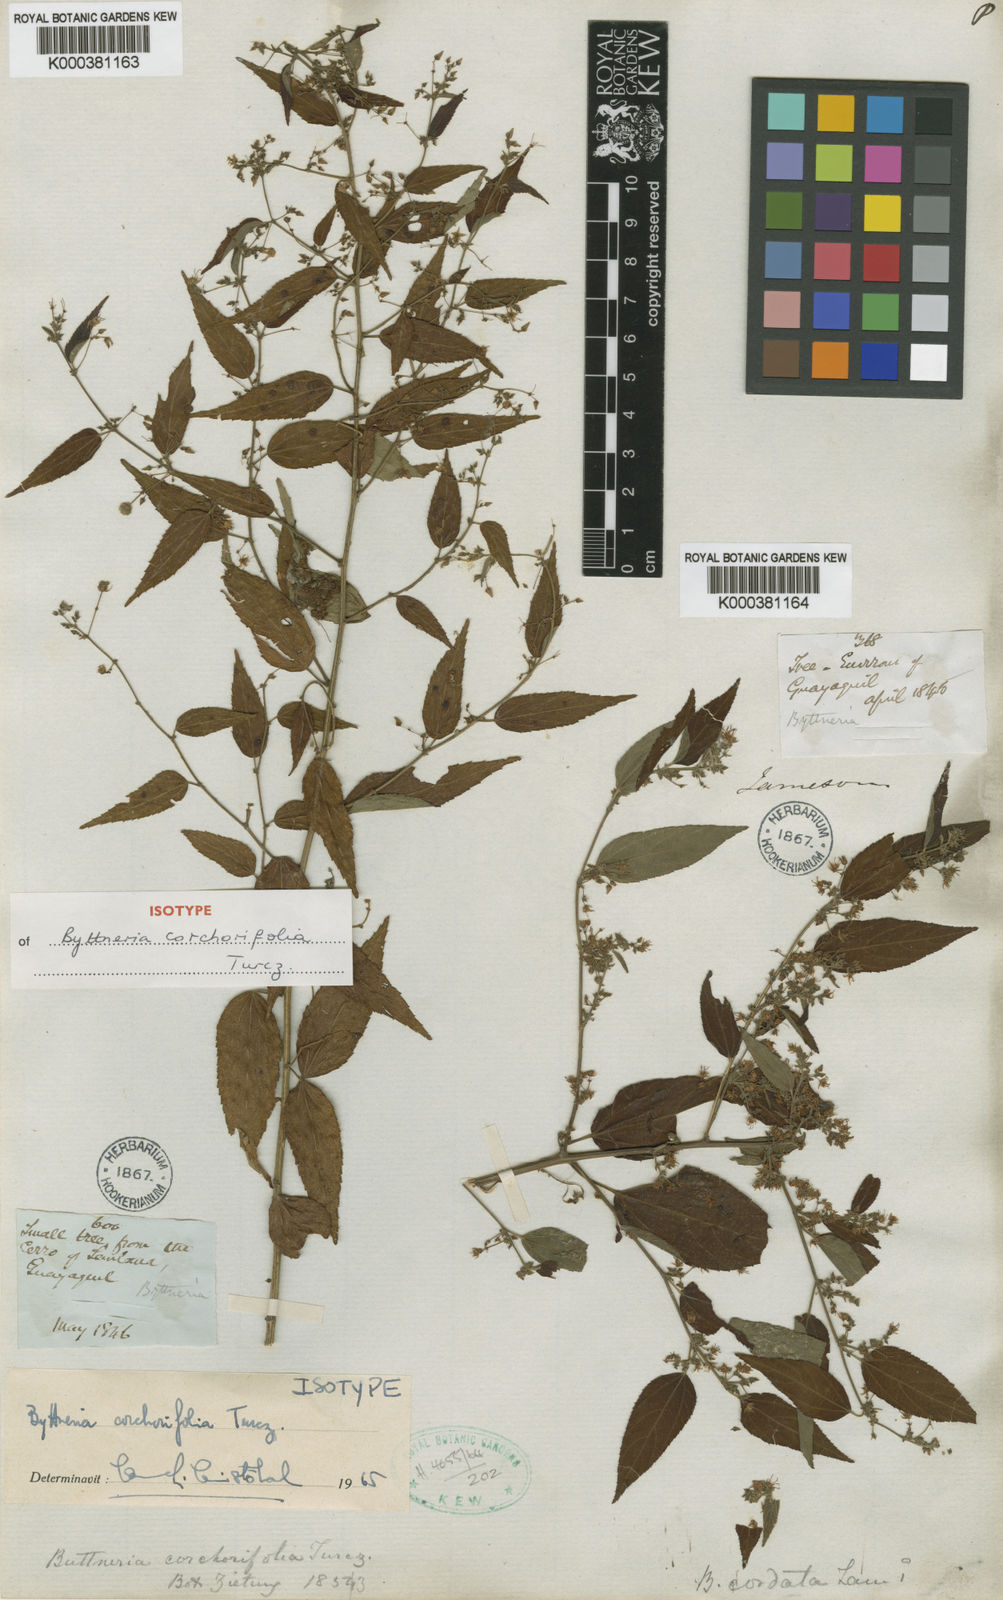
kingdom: Plantae
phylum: Tracheophyta
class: Magnoliopsida
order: Malvales
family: Malvaceae
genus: Byttneria
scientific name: Byttneria corchorifolia
